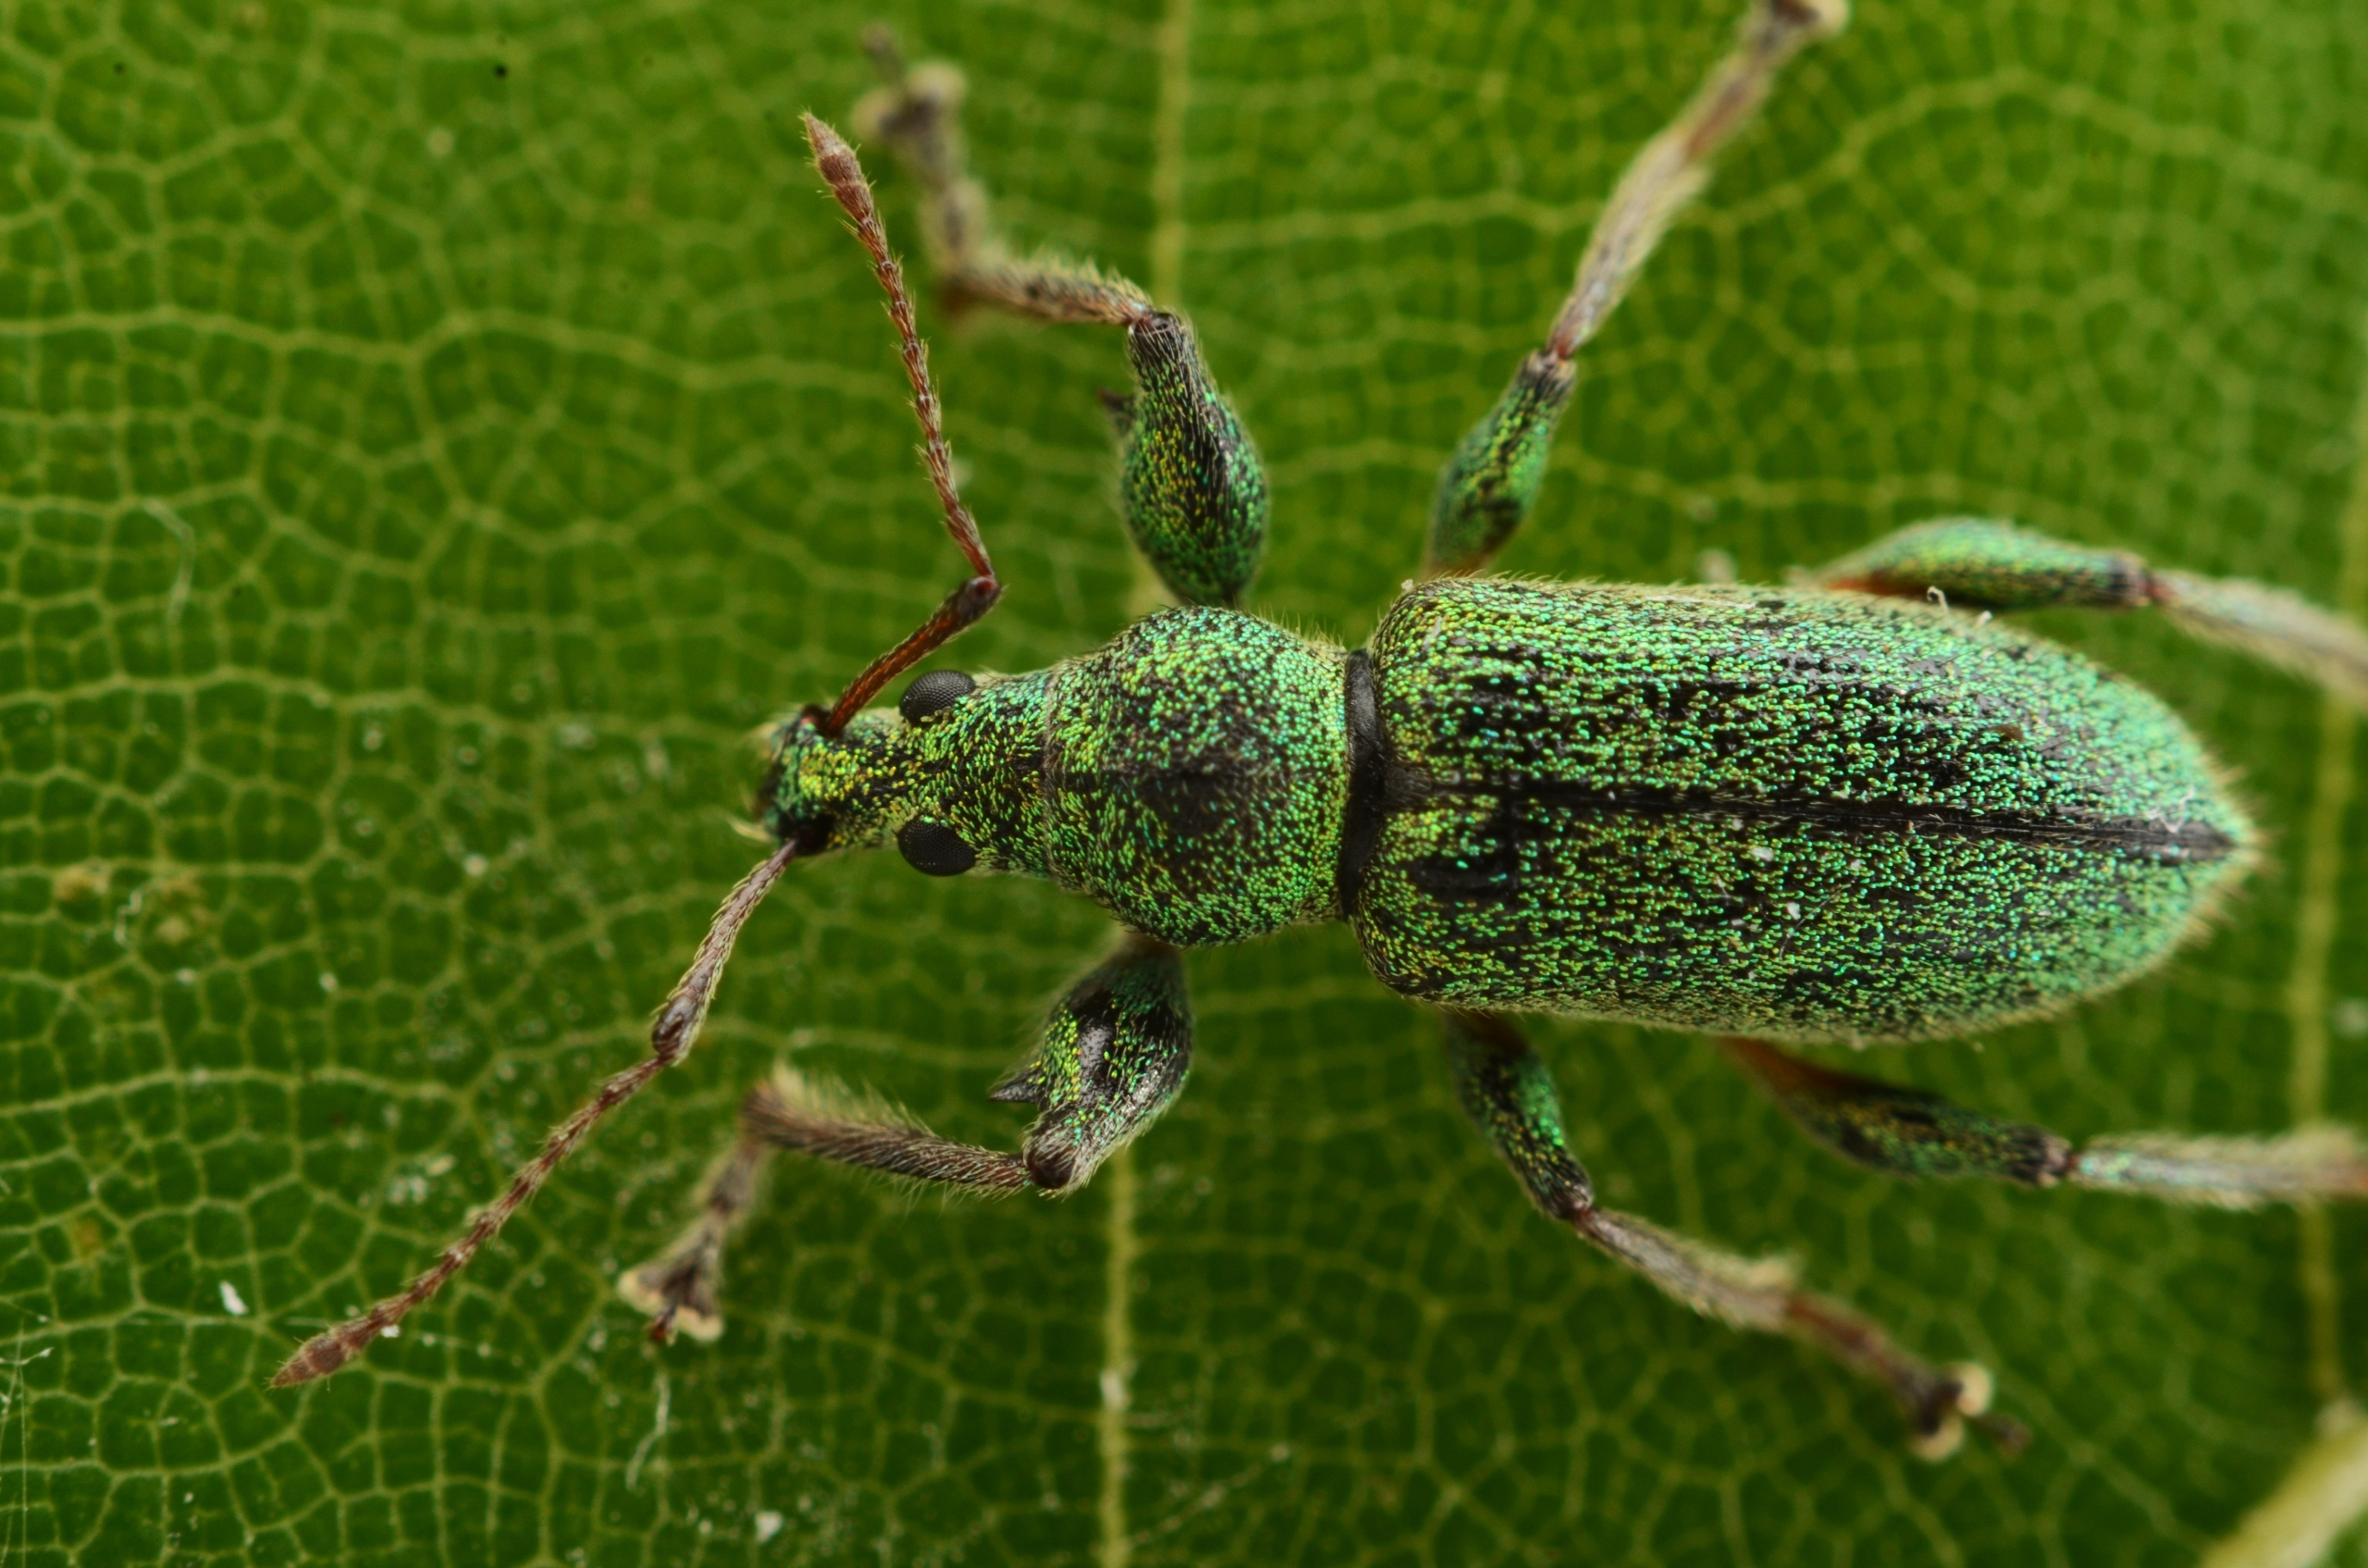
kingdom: Animalia
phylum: Arthropoda
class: Insecta
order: Coleoptera
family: Curculionidae
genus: Phyllobius
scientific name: Phyllobius arborator
